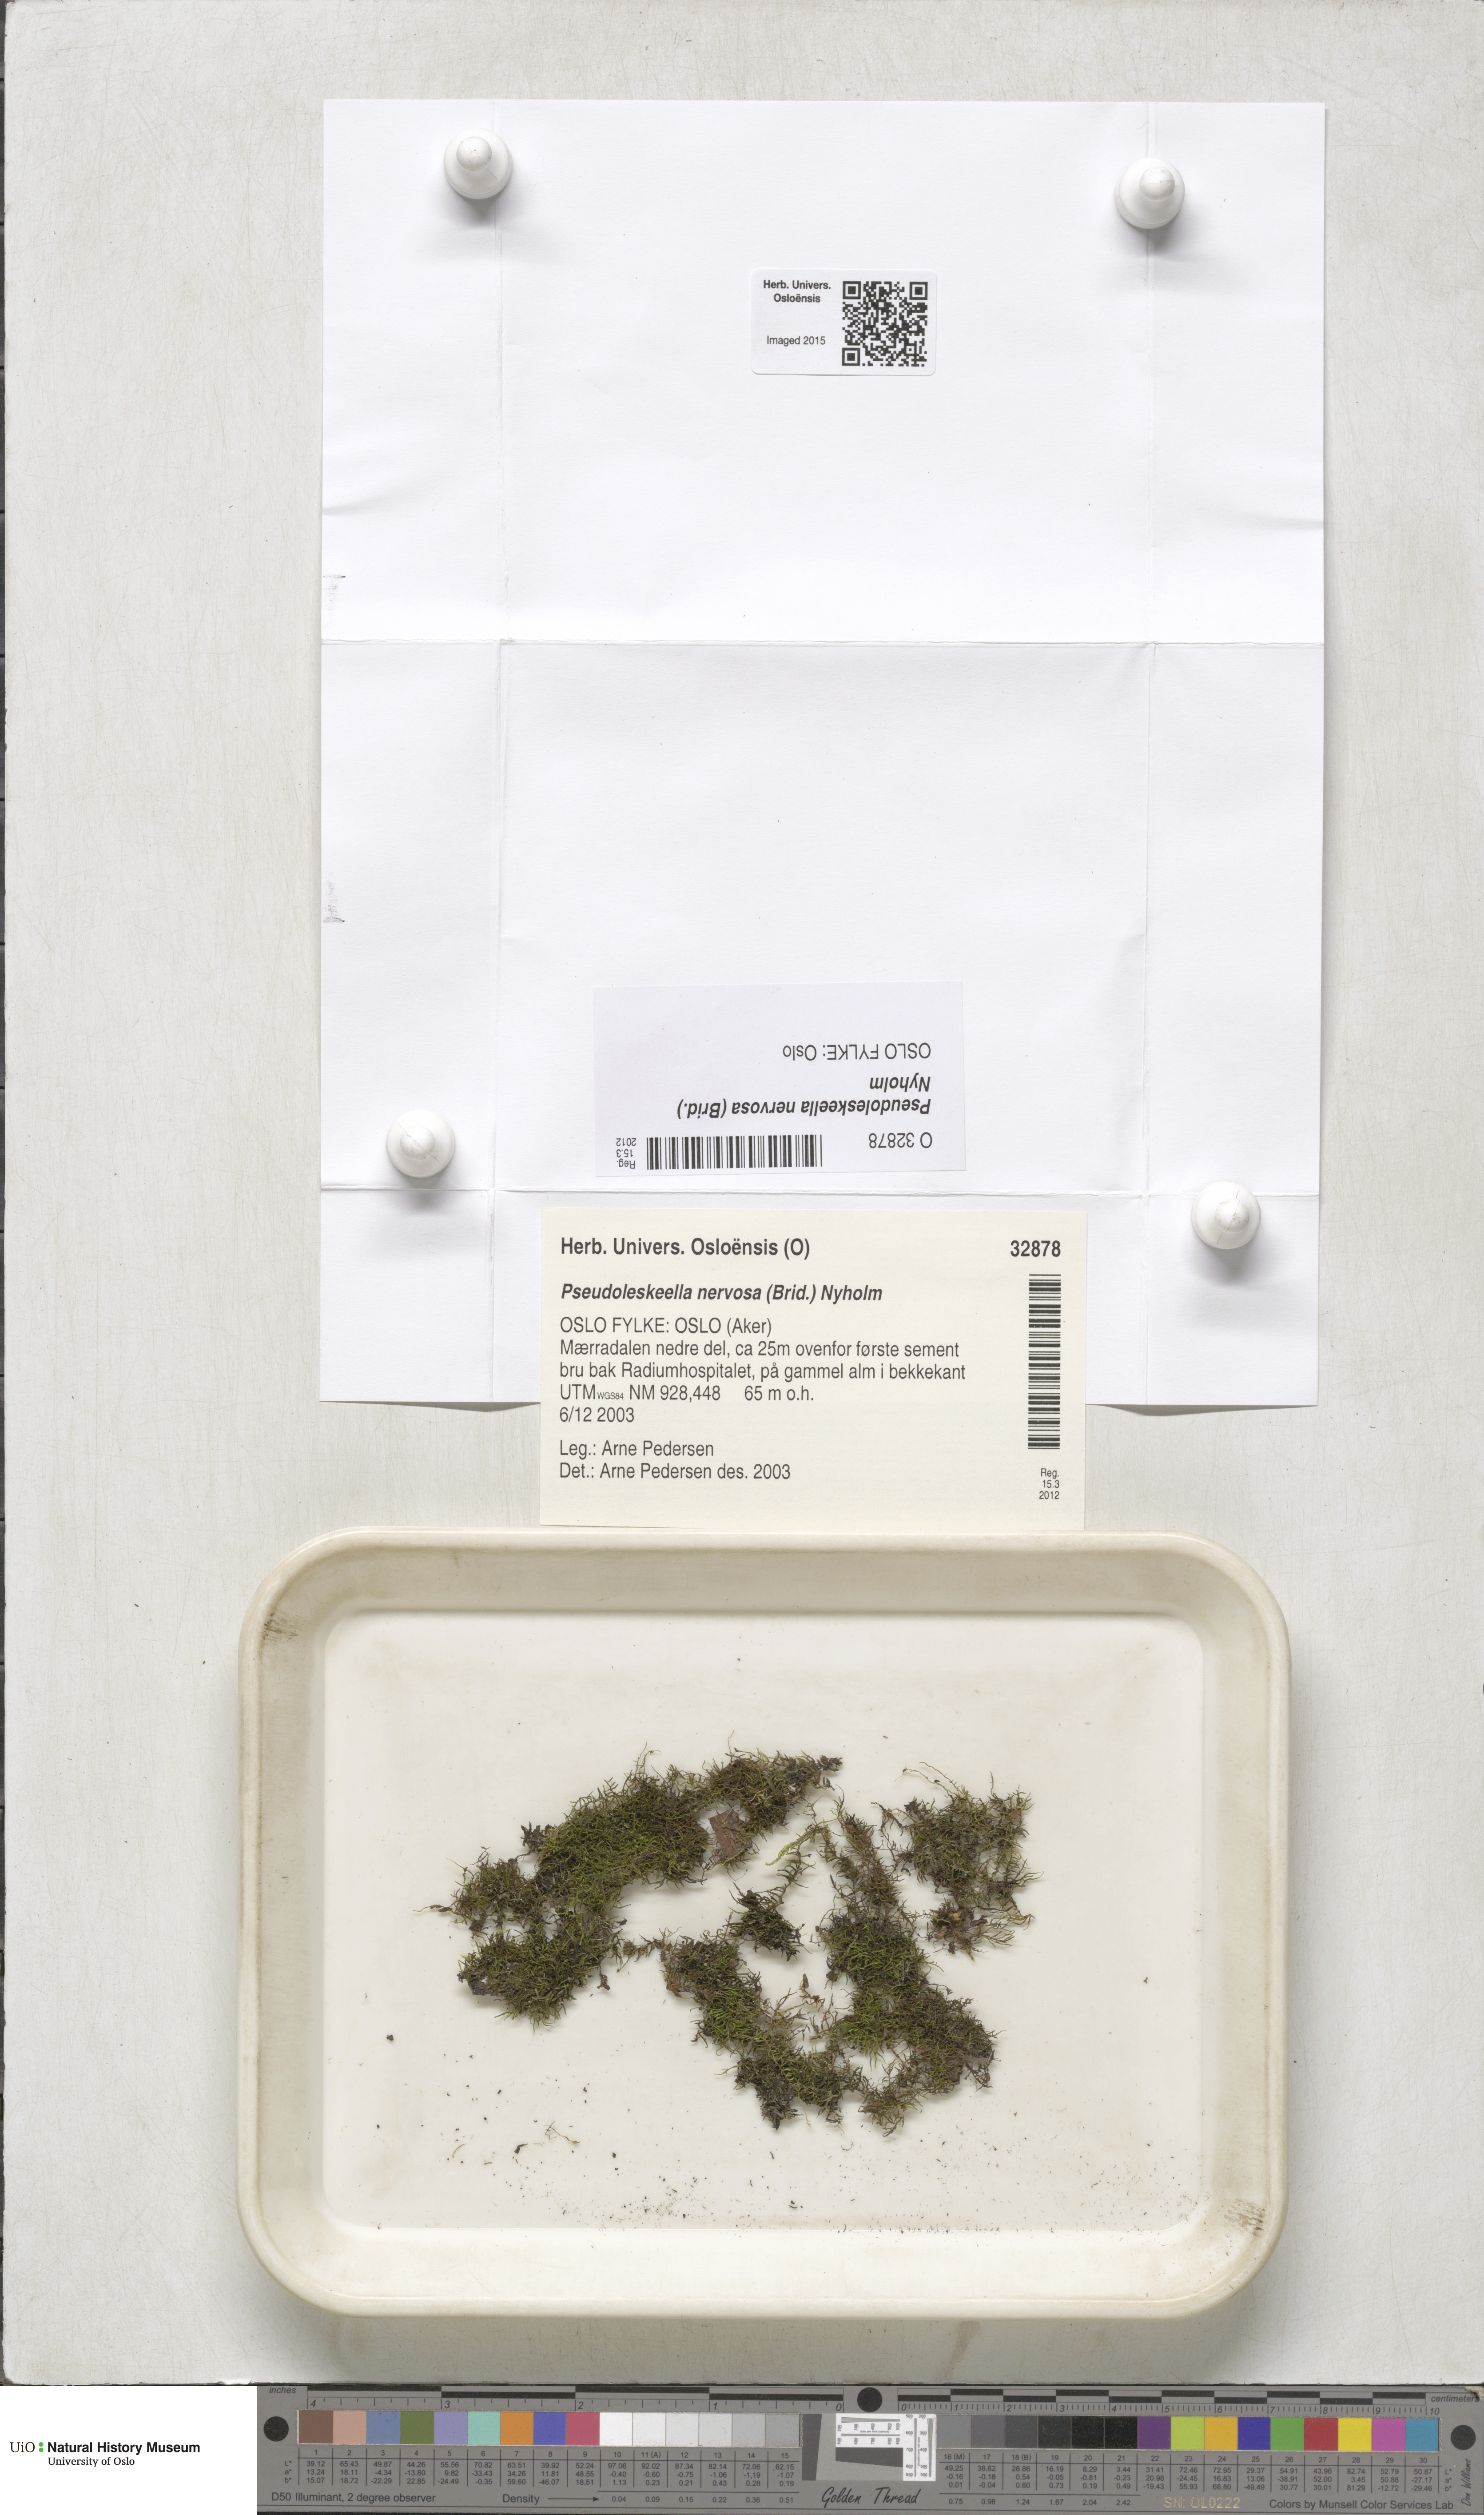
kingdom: Plantae
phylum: Bryophyta
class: Bryopsida
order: Hypnales
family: Pseudoleskeellaceae
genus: Pseudoleskeella
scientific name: Pseudoleskeella nervosa
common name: Nerved leske's moss
